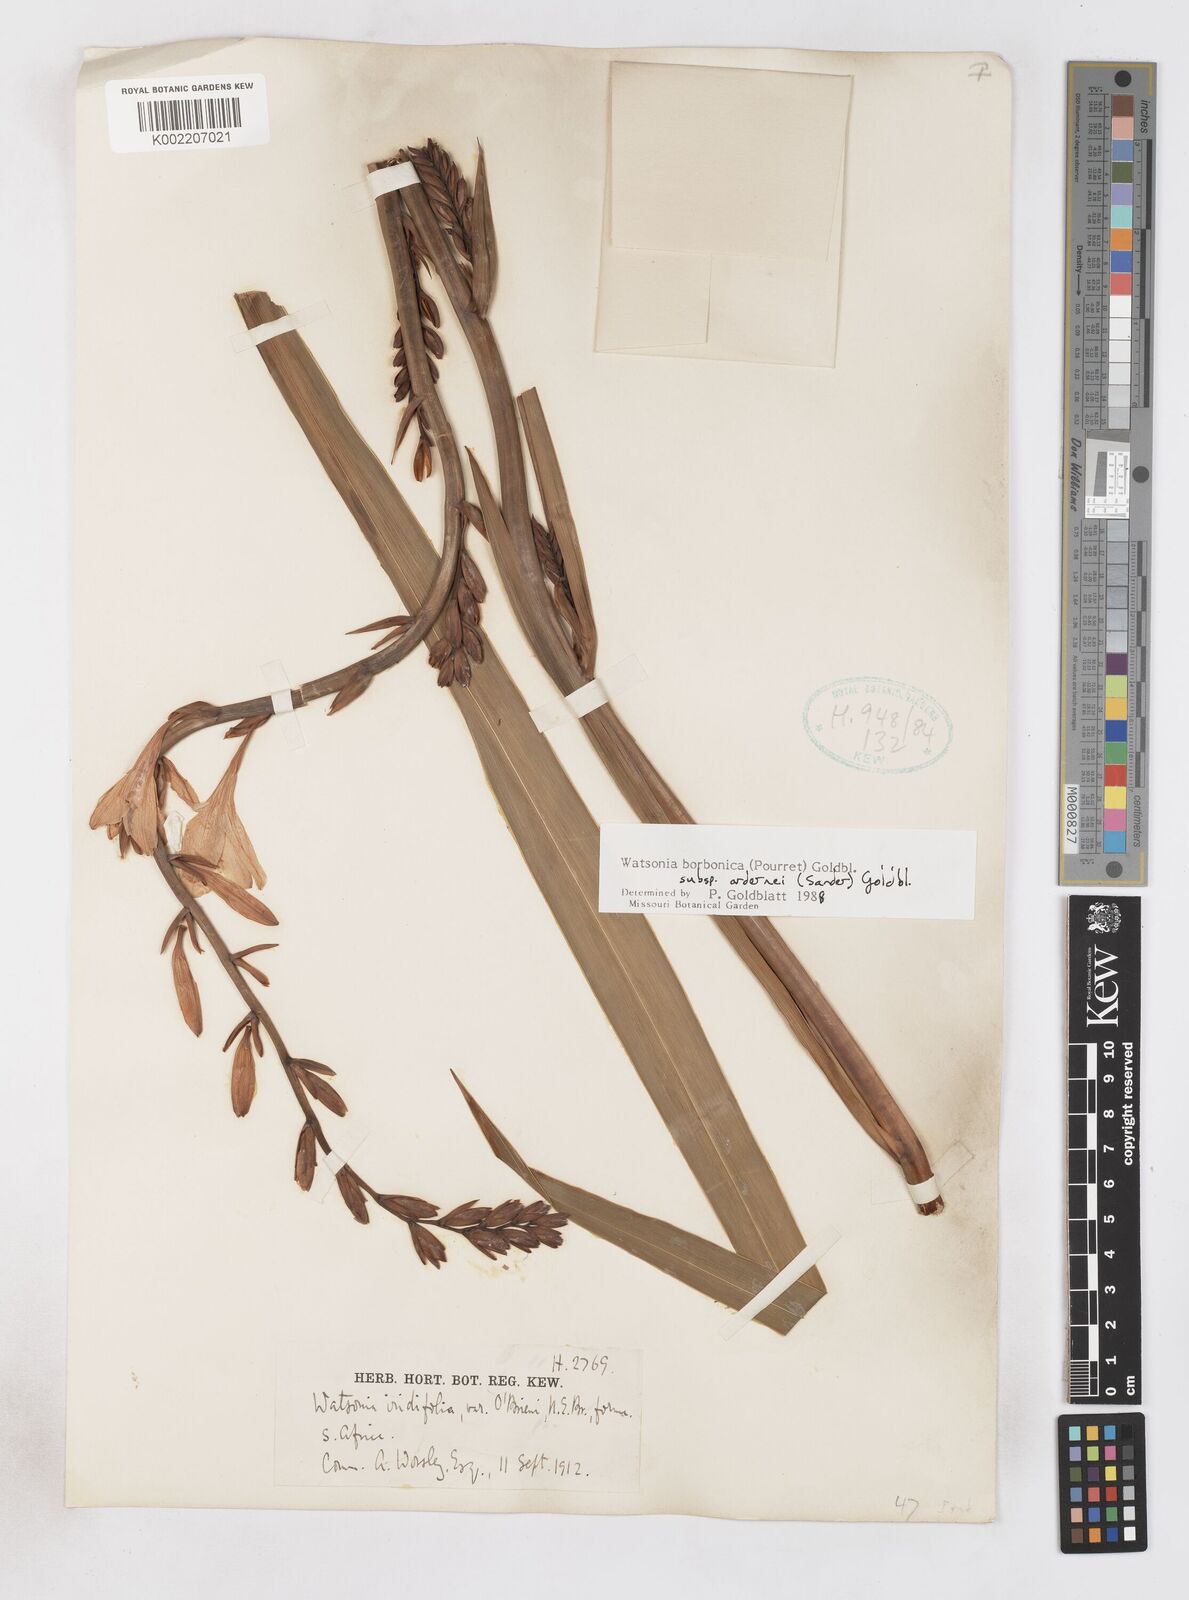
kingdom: Plantae
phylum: Tracheophyta
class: Liliopsida
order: Asparagales
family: Iridaceae
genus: Watsonia
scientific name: Watsonia borbonica
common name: Bugle-lily
